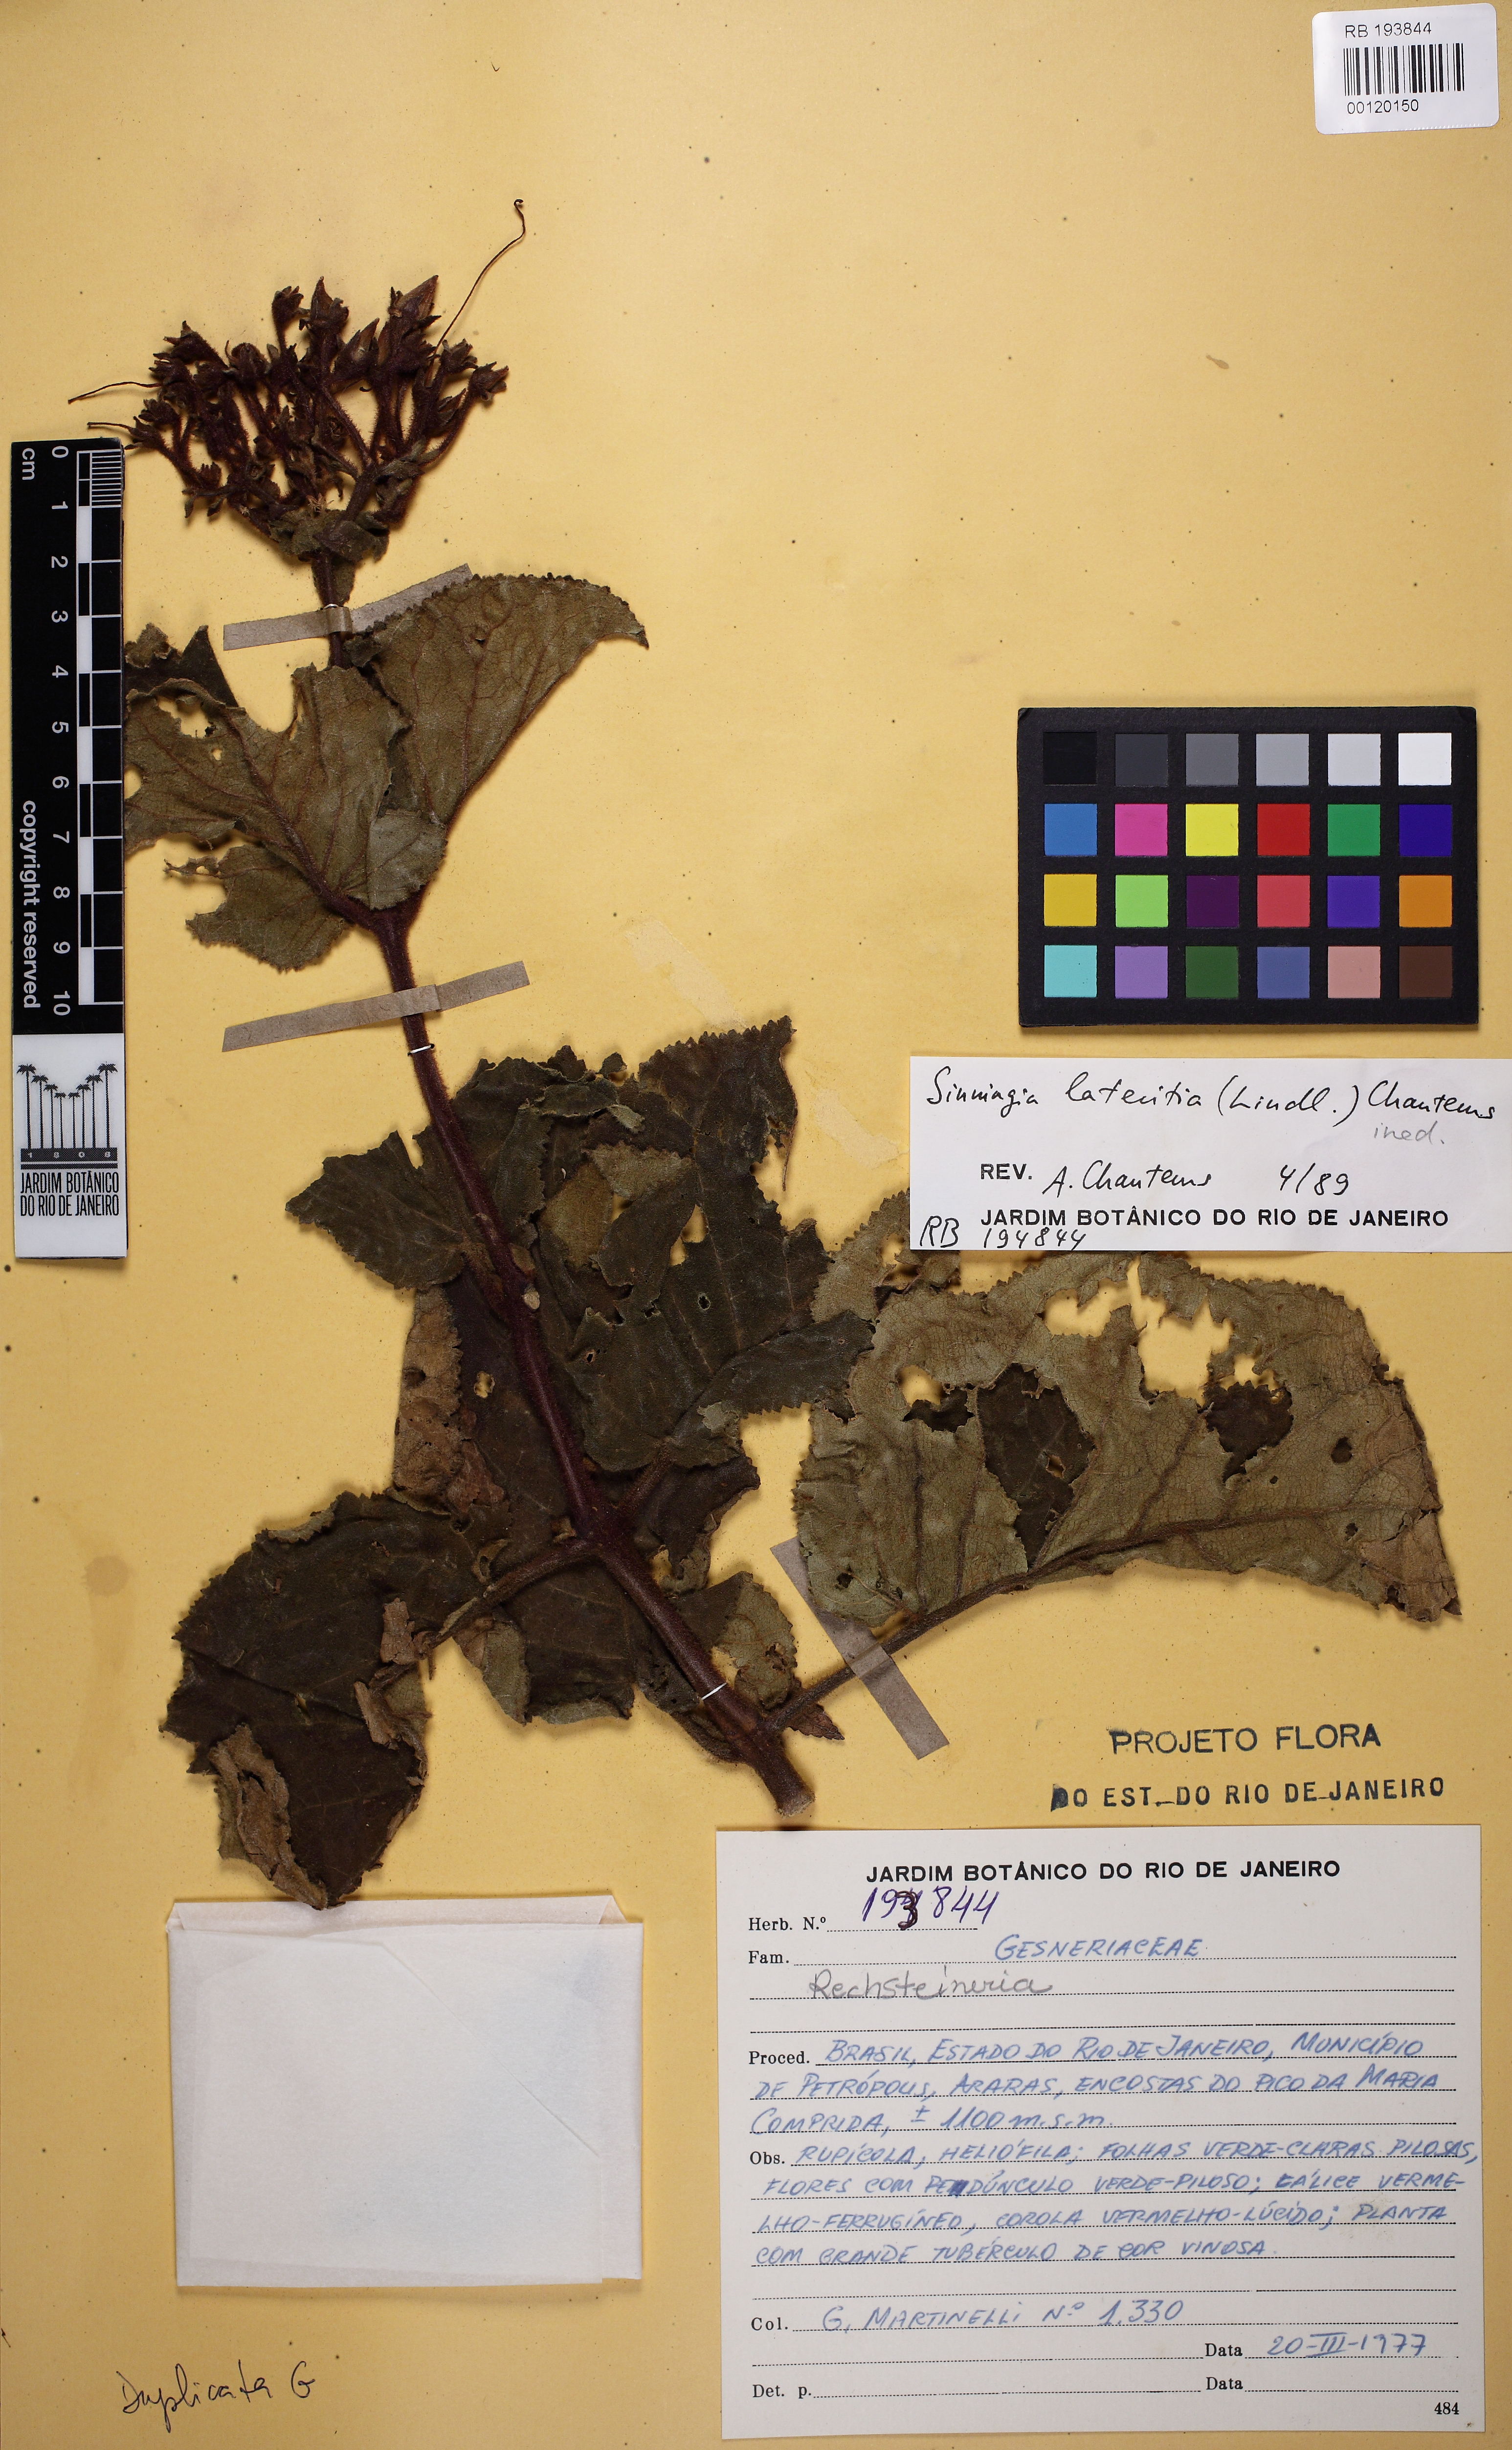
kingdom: Plantae
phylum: Tracheophyta
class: Magnoliopsida
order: Lamiales
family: Gesneriaceae
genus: Sinningia
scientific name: Sinningia lateritia
